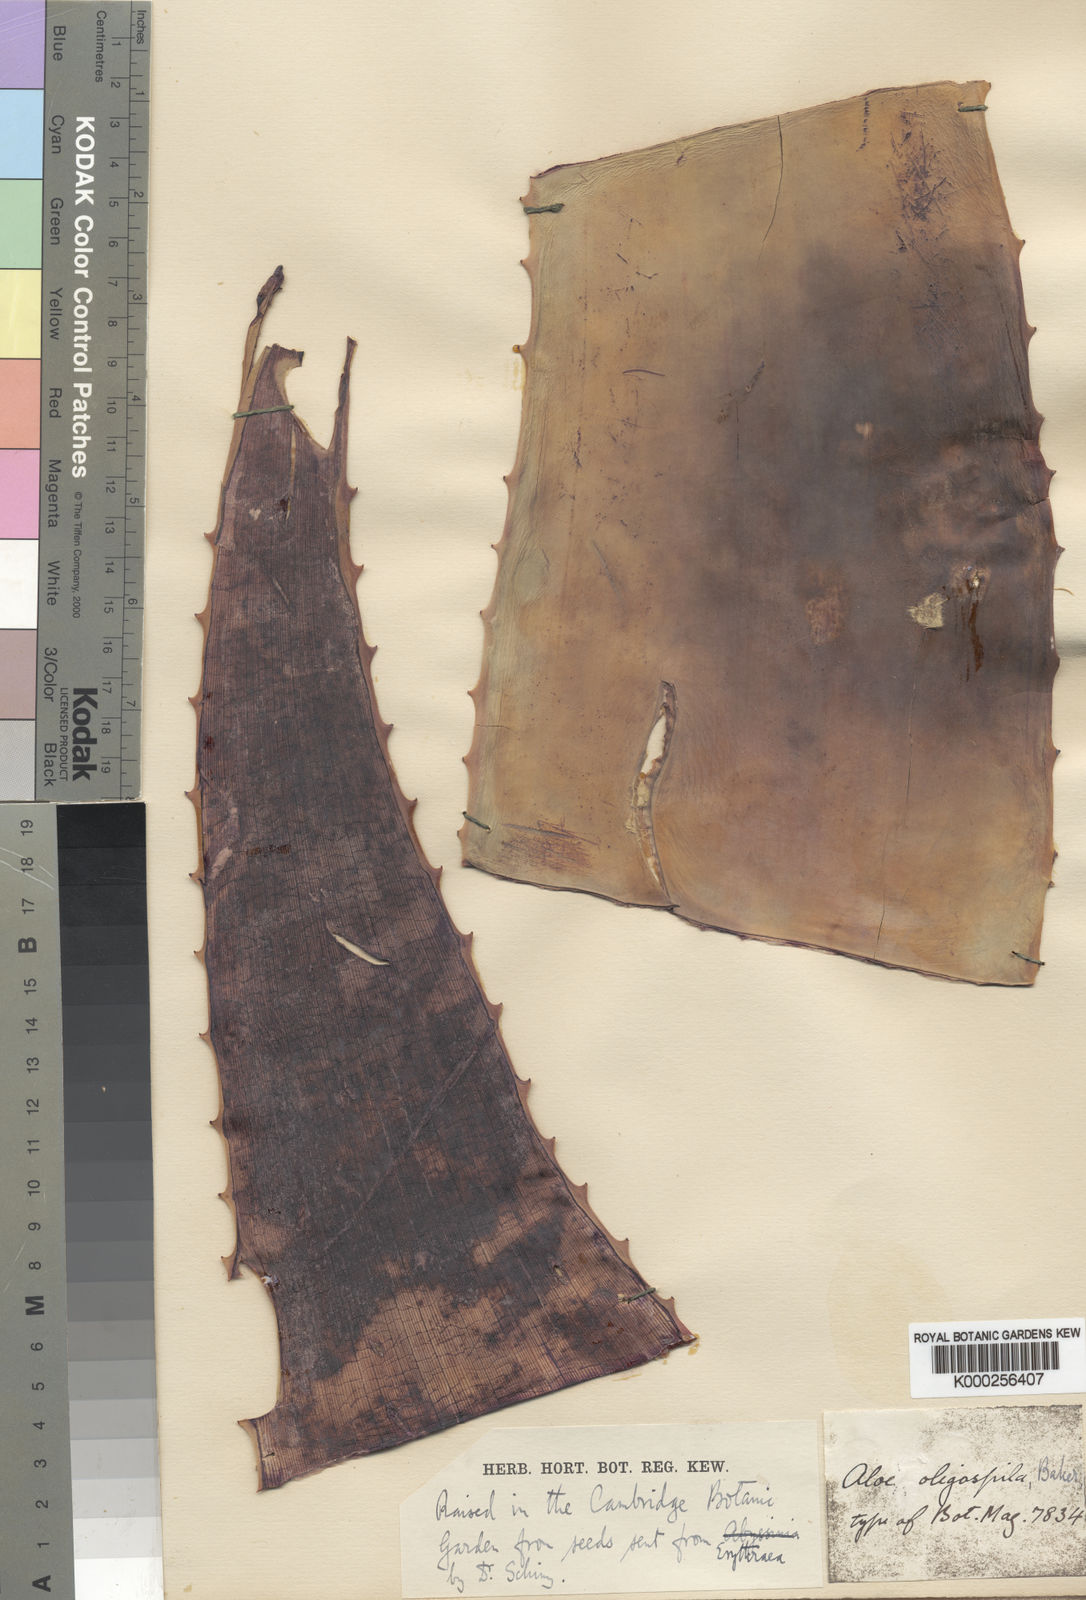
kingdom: Plantae
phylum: Tracheophyta
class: Liliopsida
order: Asparagales
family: Asphodelaceae
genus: Aloe
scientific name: Aloe percrassa
